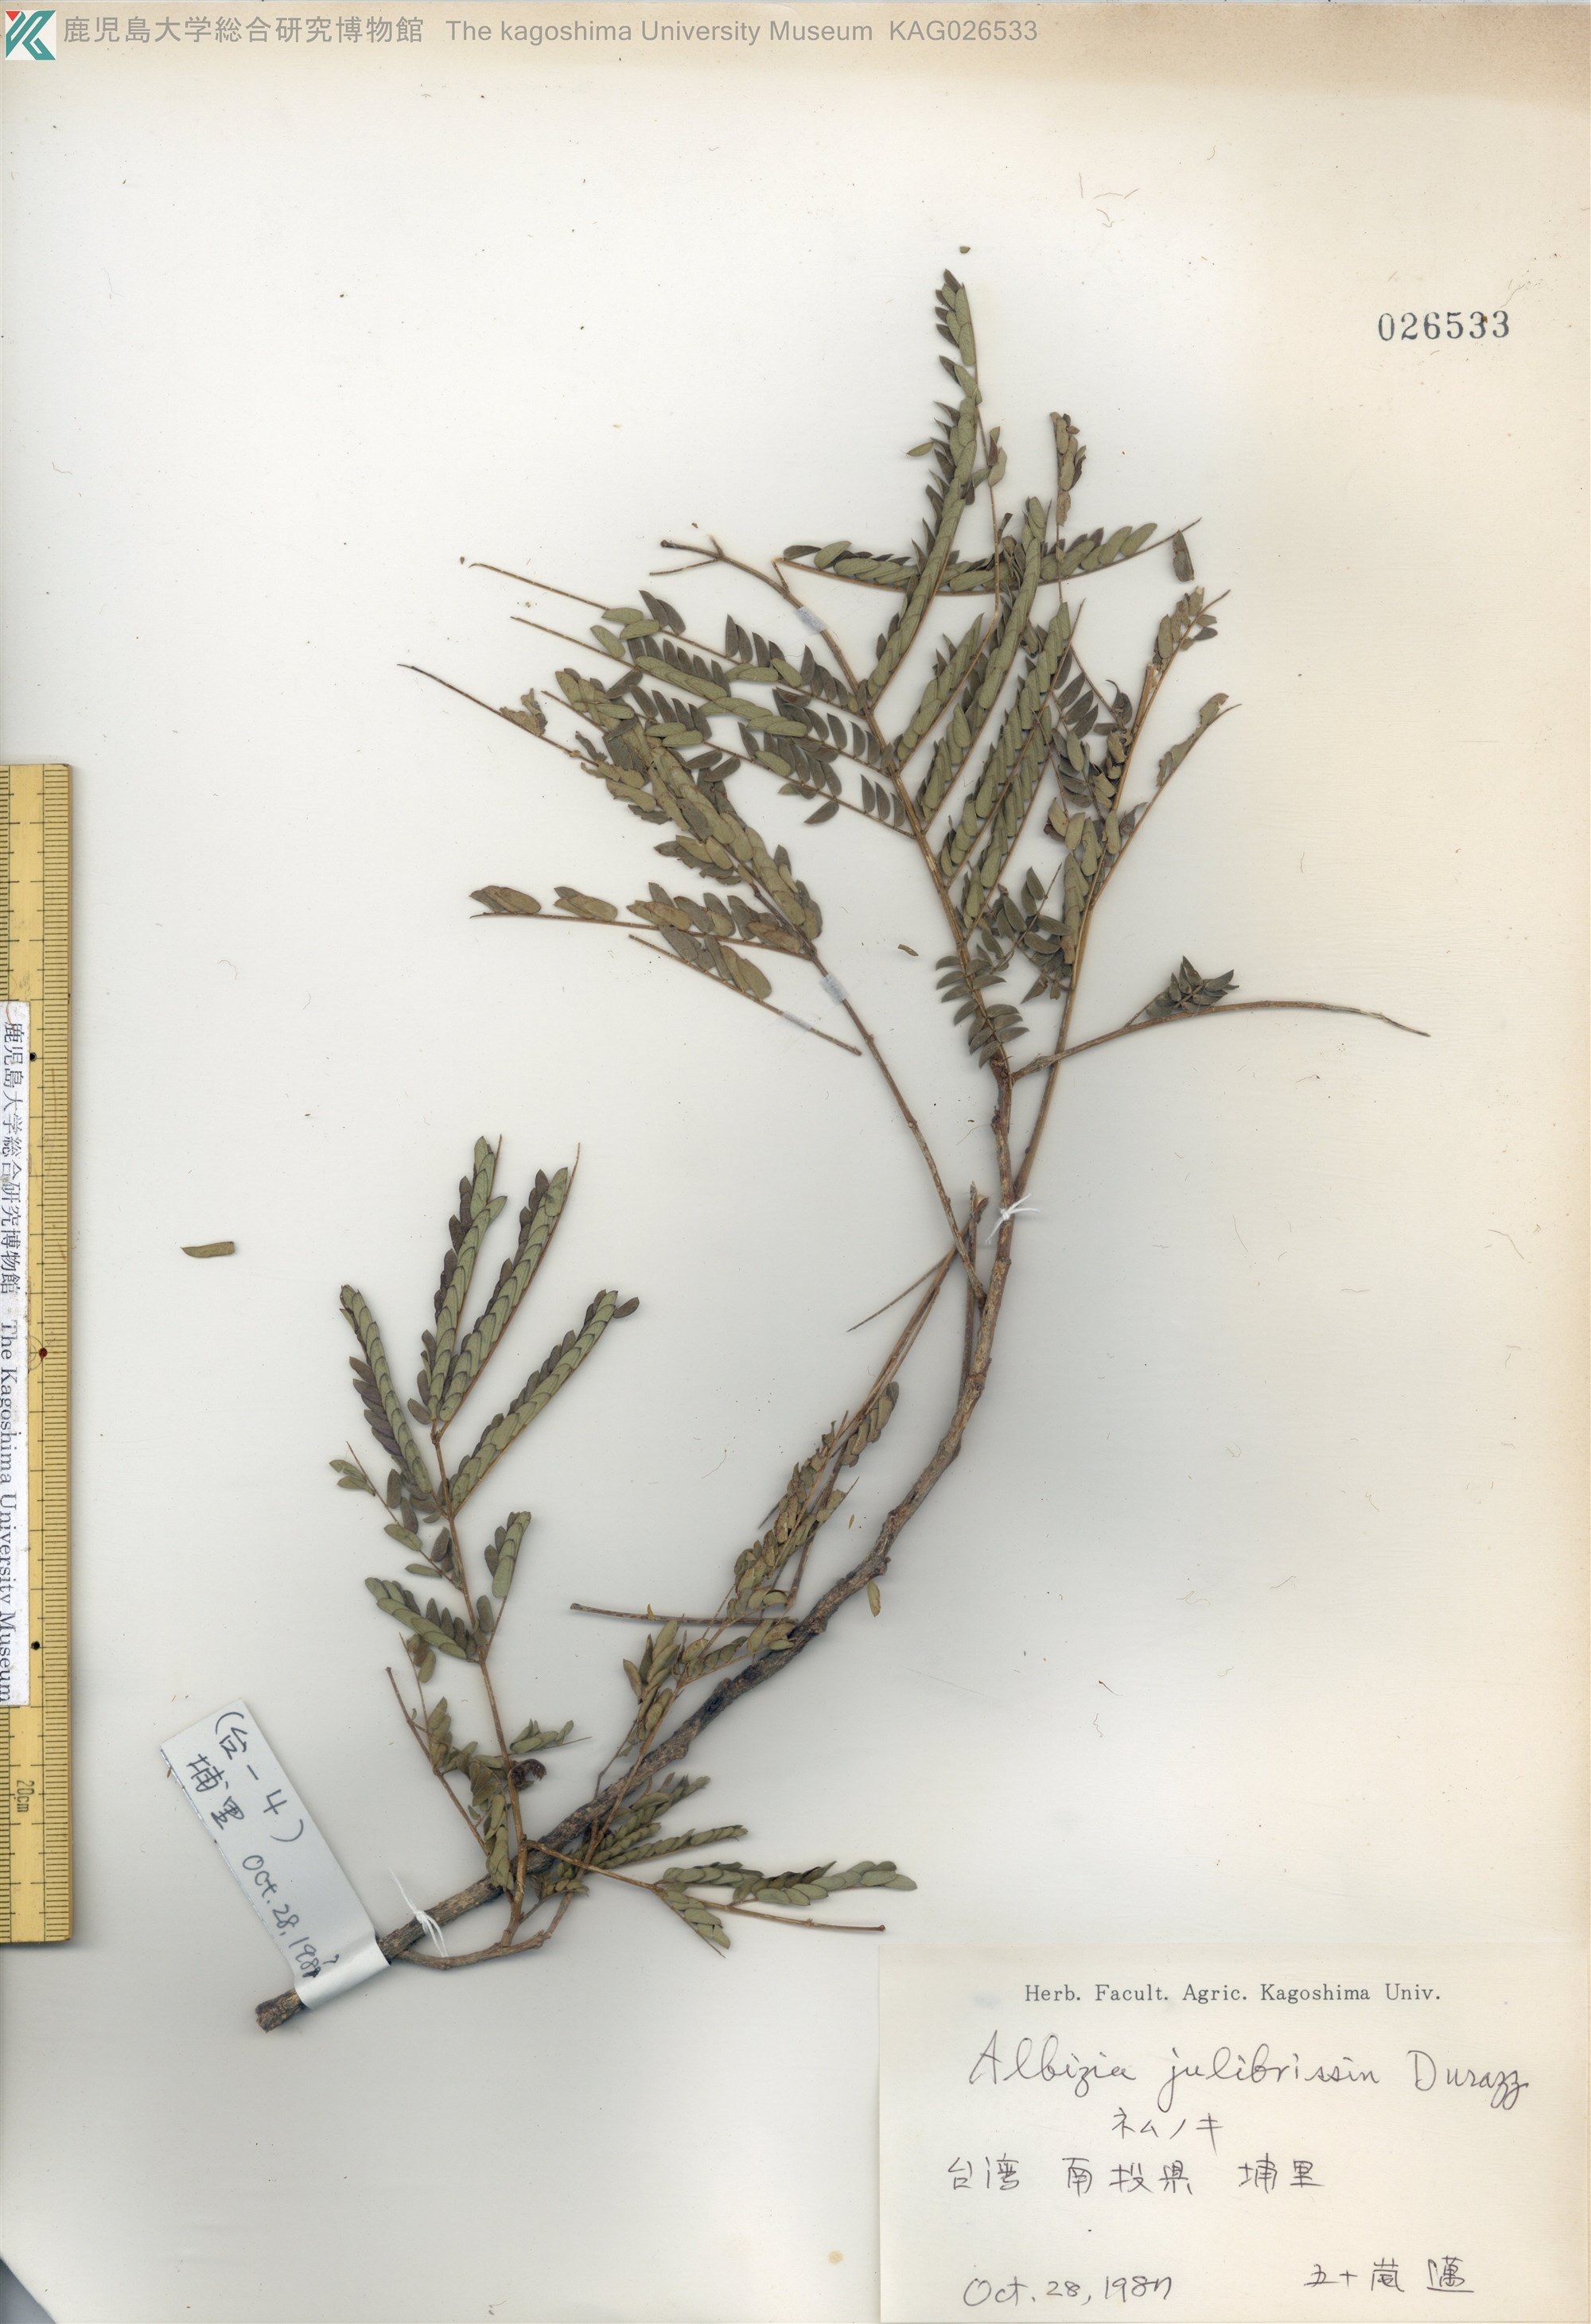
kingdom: Plantae
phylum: Tracheophyta
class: Magnoliopsida
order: Fabales
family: Fabaceae
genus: Albizia
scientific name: Albizia julibrissin
